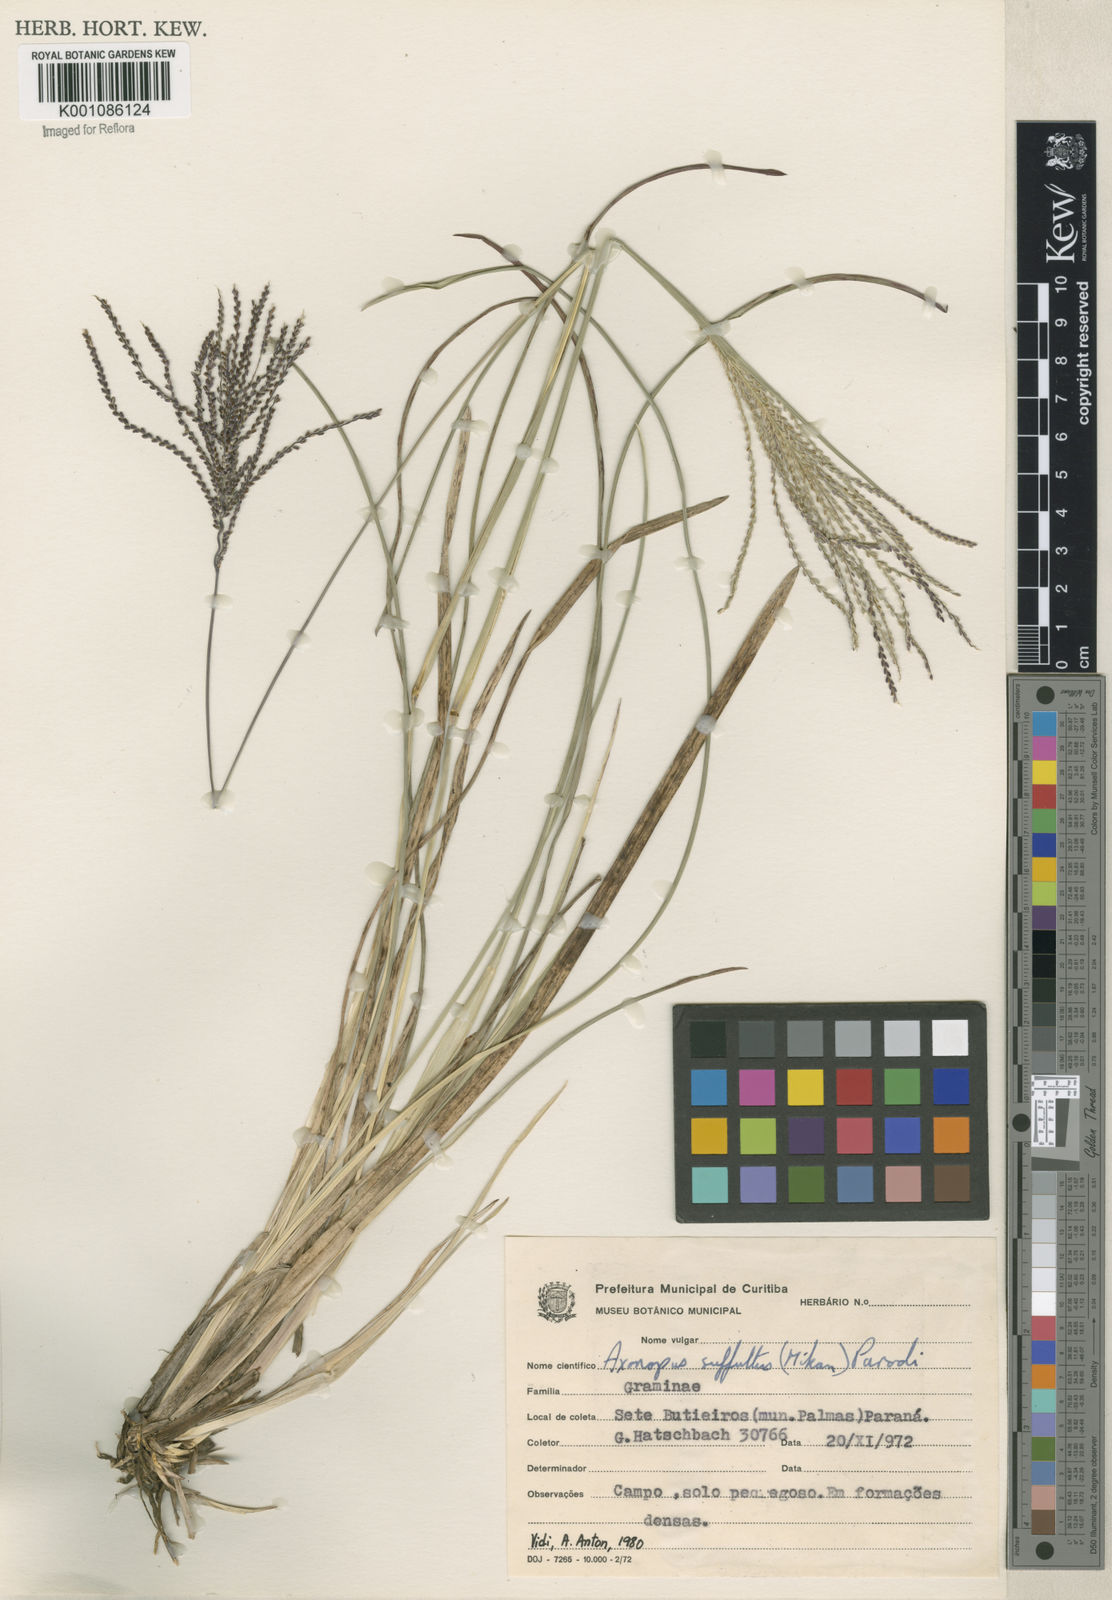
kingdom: Plantae
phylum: Tracheophyta
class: Liliopsida
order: Poales
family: Poaceae
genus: Axonopus
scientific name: Axonopus suffultus
